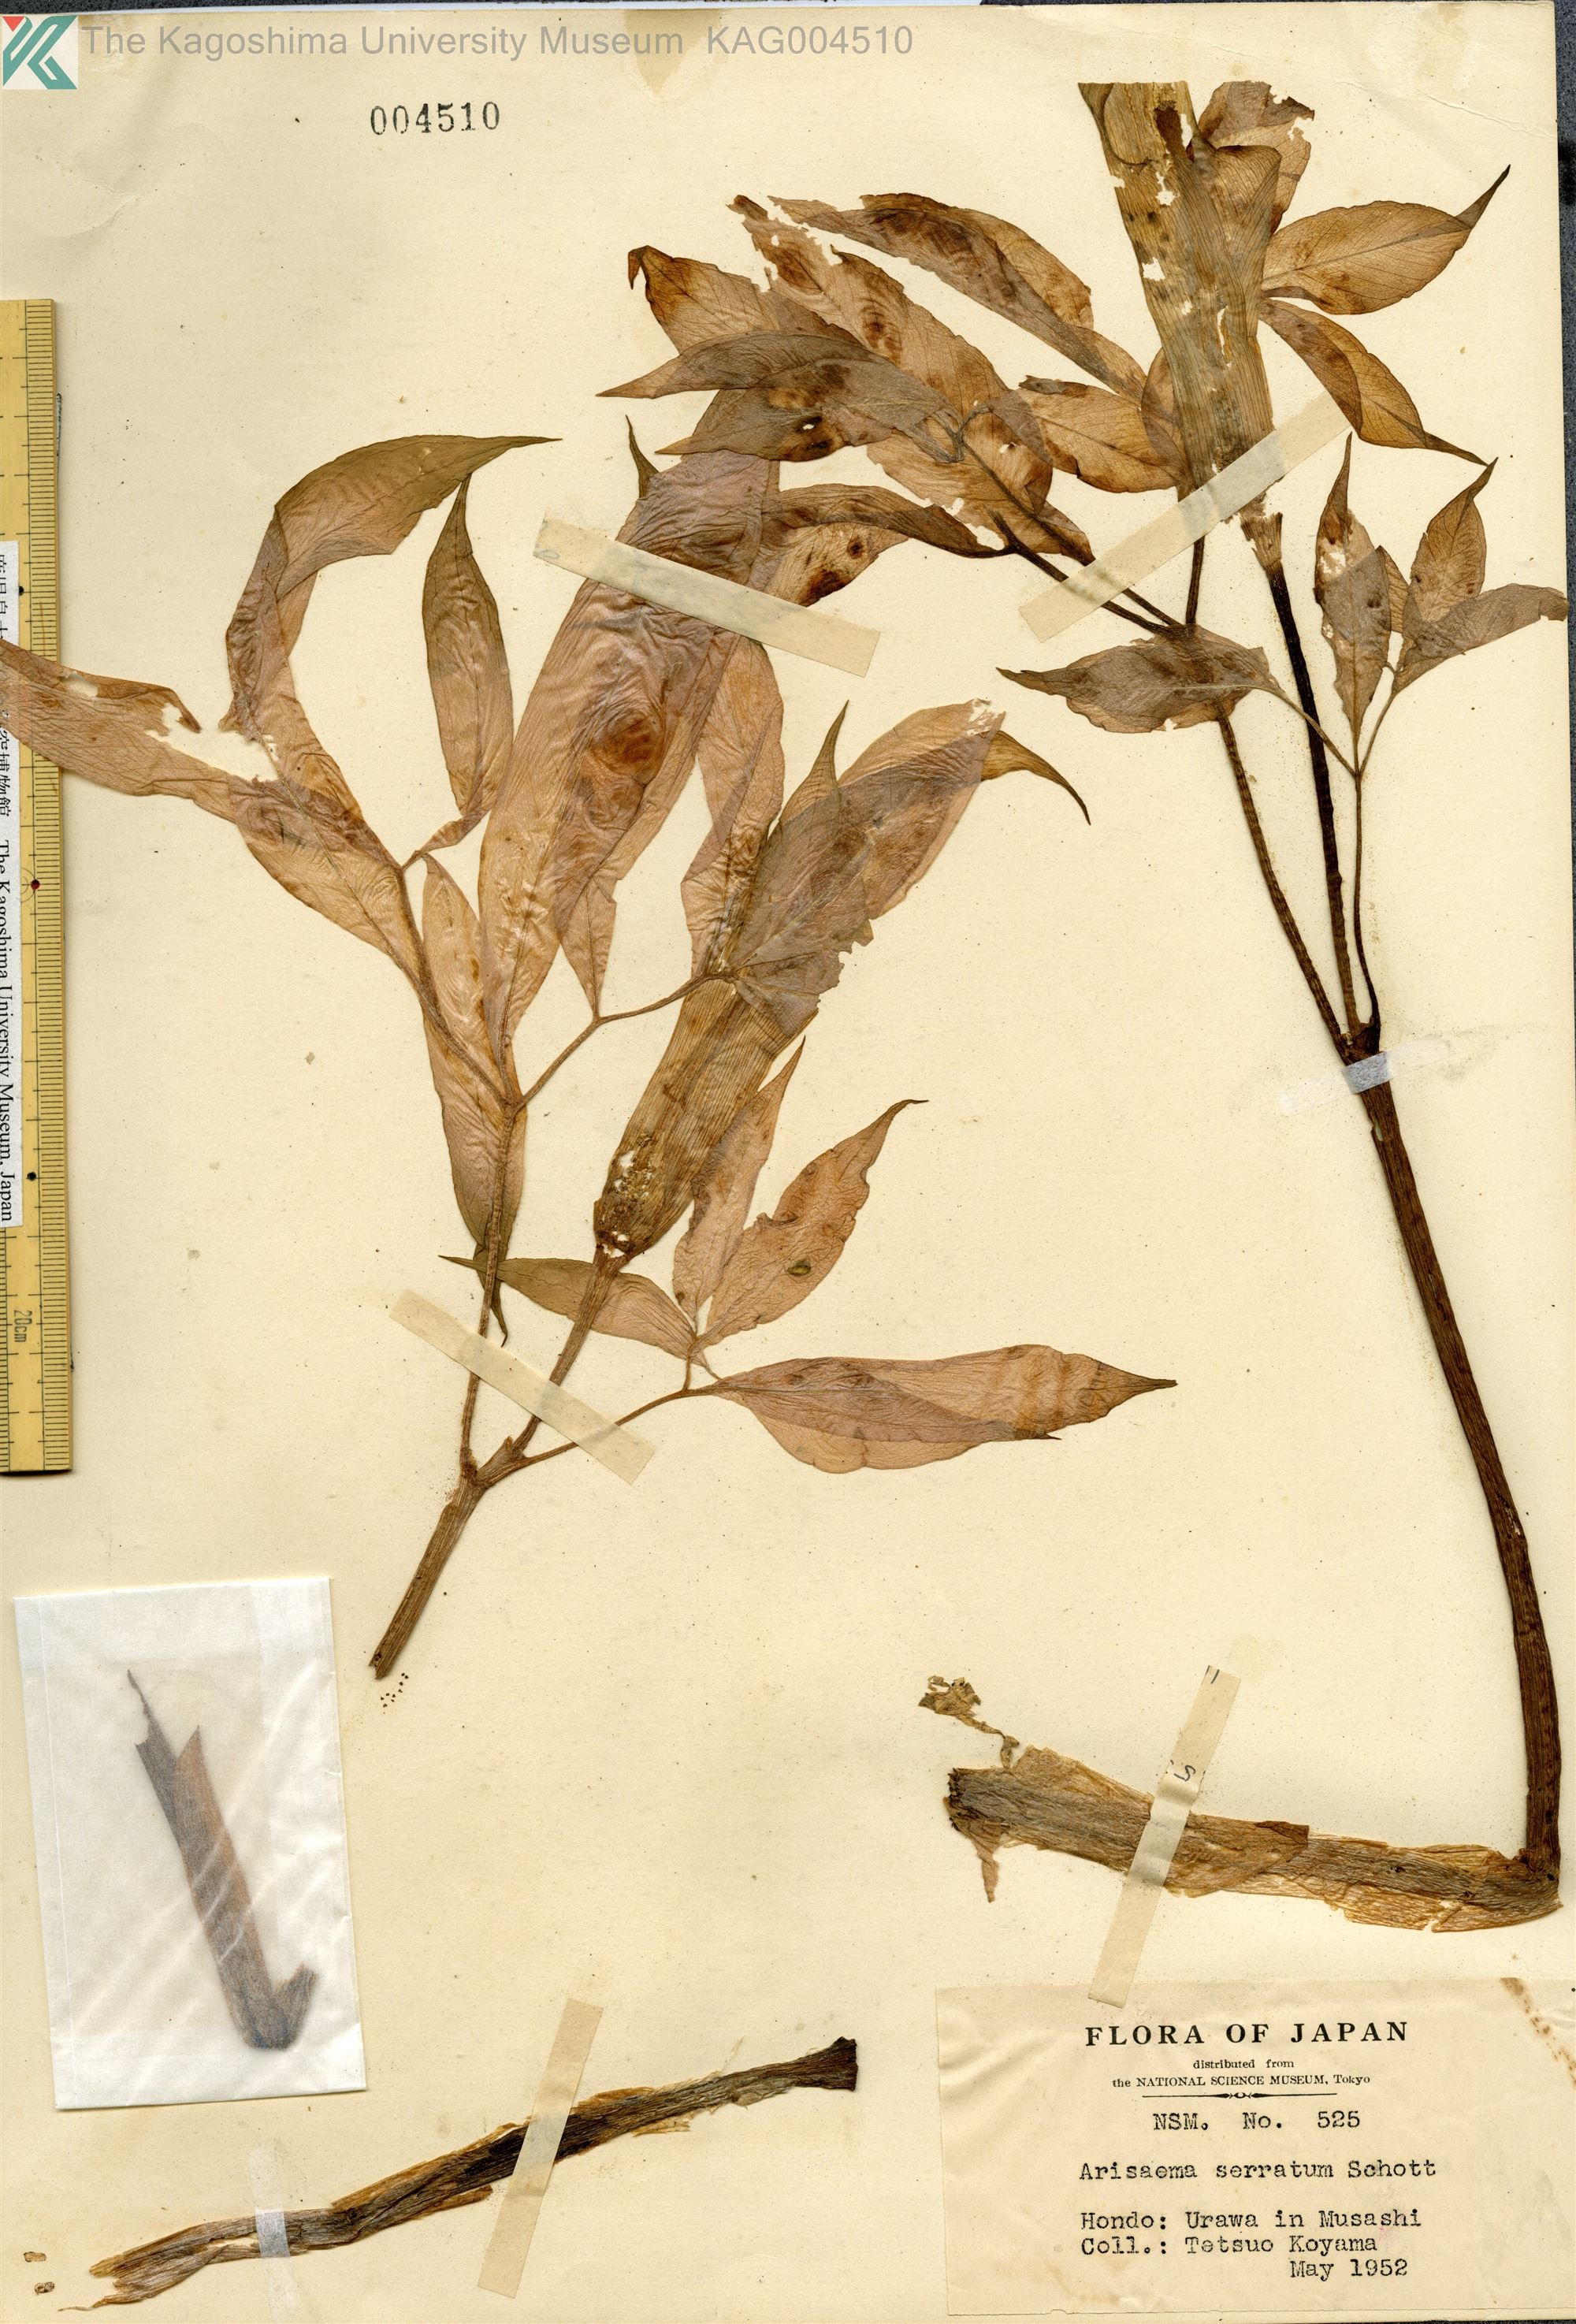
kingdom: Plantae
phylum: Tracheophyta
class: Liliopsida
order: Alismatales
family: Araceae
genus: Arisaema
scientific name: Arisaema serratum
